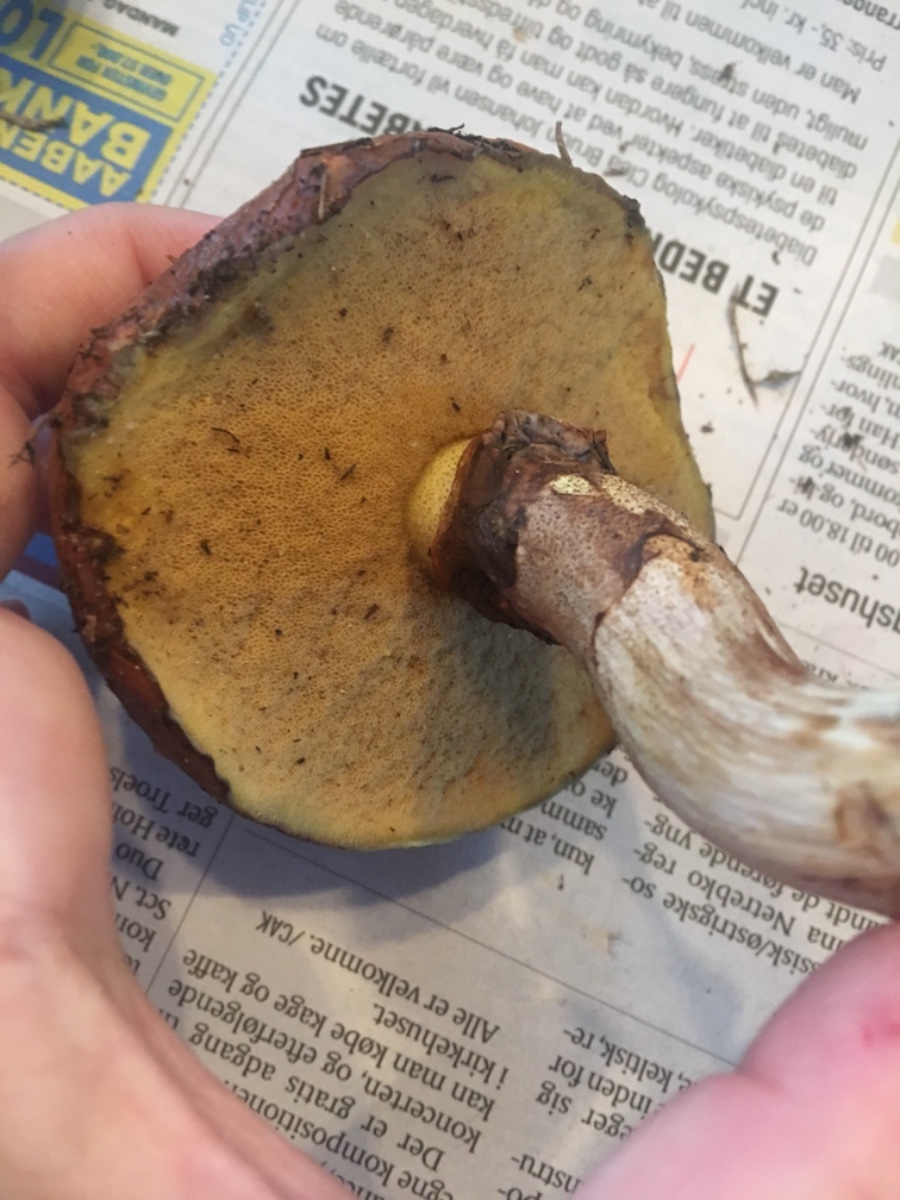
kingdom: Fungi
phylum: Basidiomycota
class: Agaricomycetes
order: Boletales
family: Suillaceae
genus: Suillus
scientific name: Suillus luteus
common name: brungul slimrørhat
